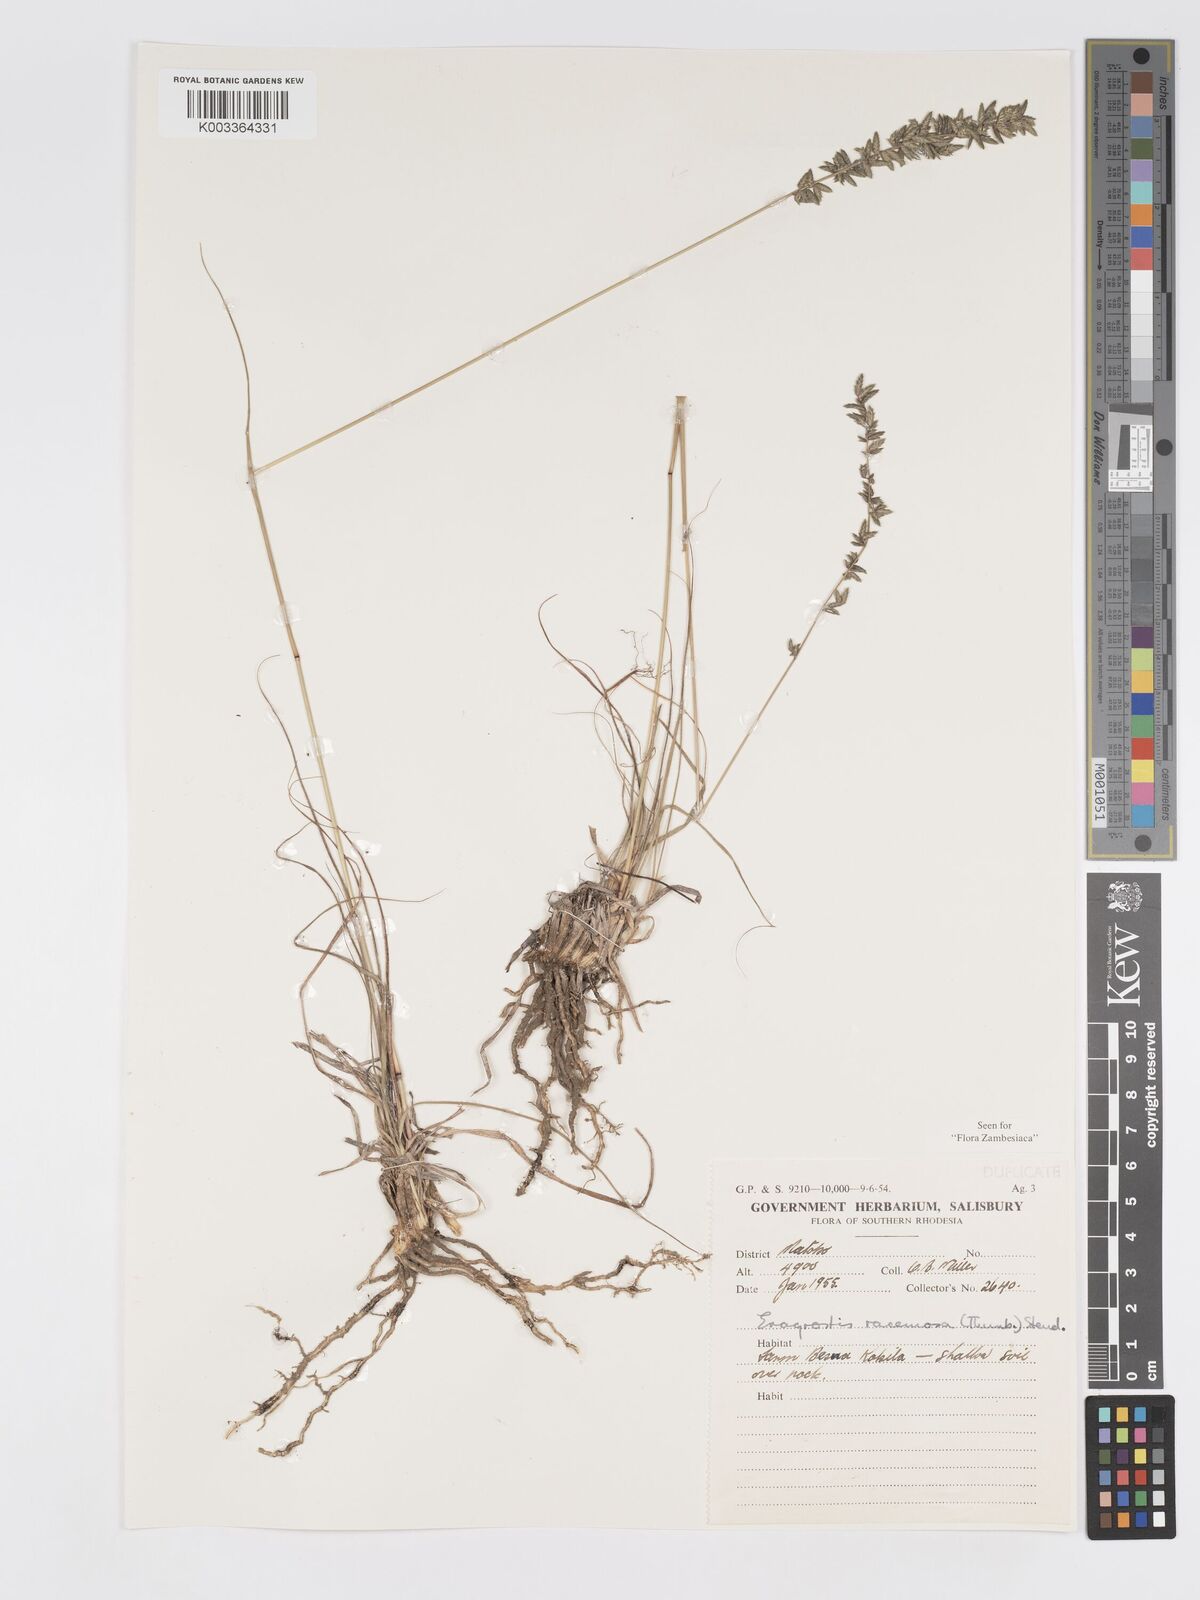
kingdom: Plantae
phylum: Tracheophyta
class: Liliopsida
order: Poales
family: Poaceae
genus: Eragrostis
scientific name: Eragrostis racemosa
